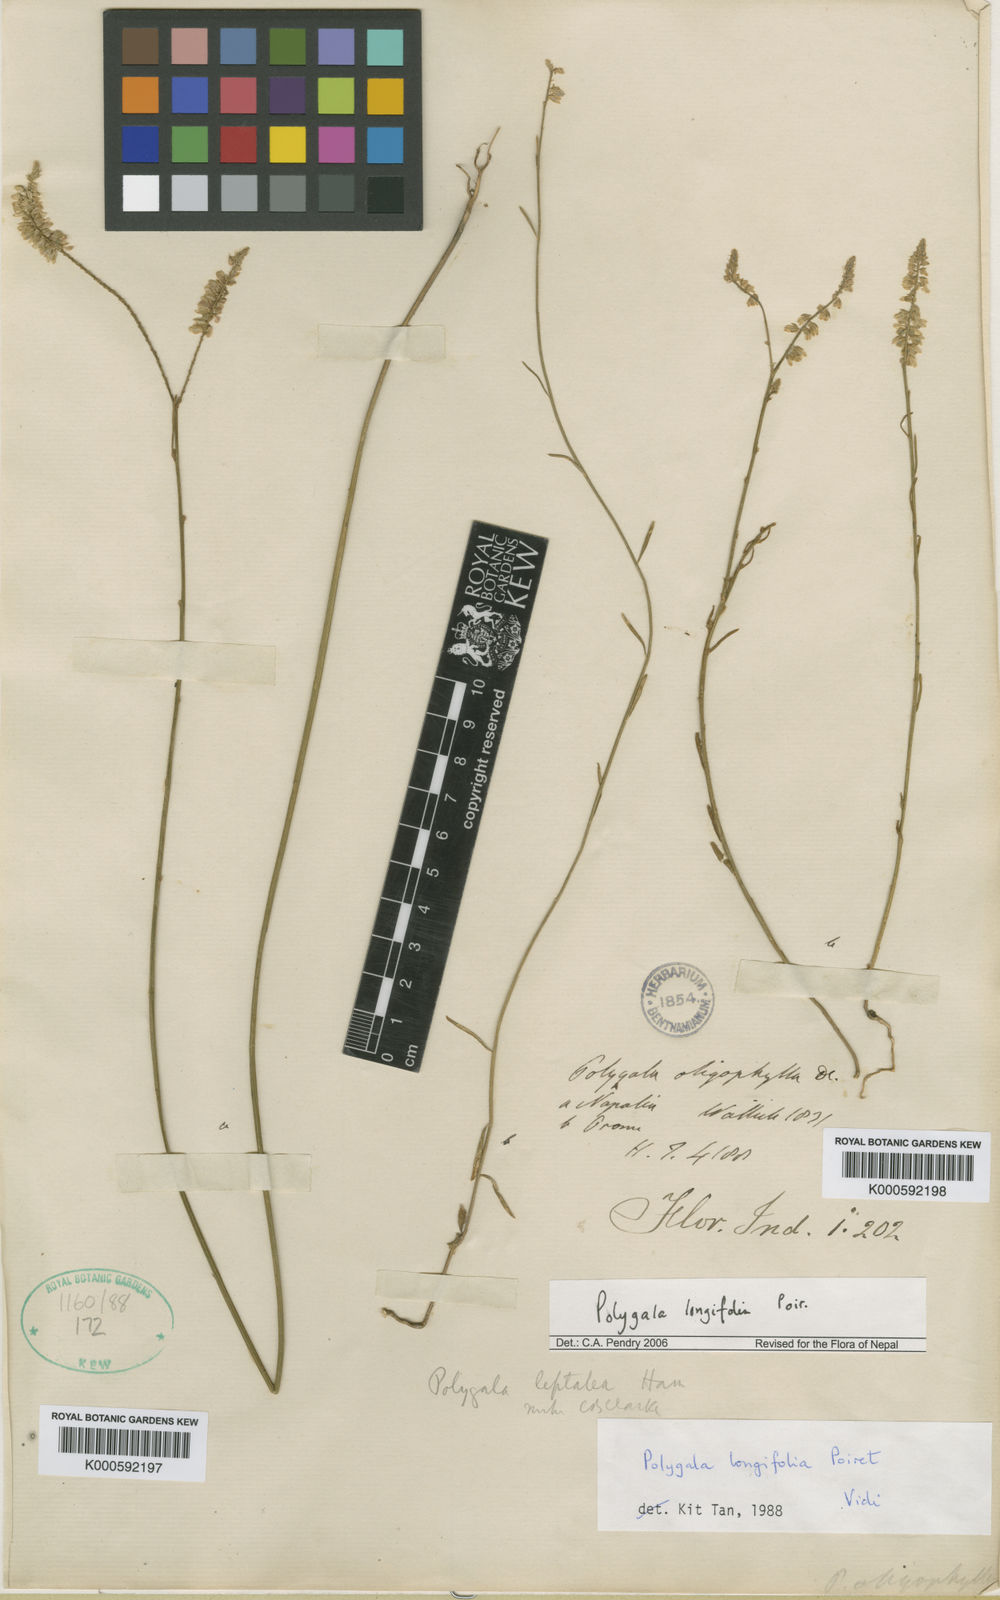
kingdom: Plantae
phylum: Tracheophyta
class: Magnoliopsida
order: Fabales
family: Polygalaceae
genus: Polygala
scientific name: Polygala longifolia
